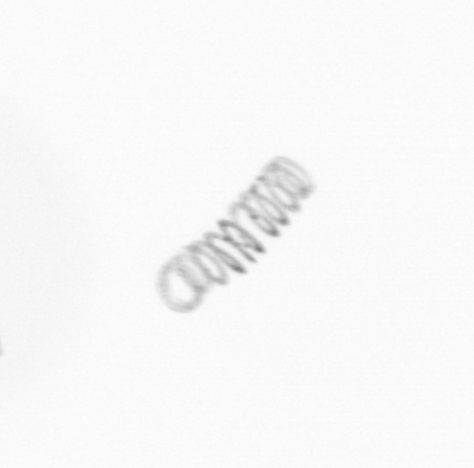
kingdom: Chromista
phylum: Ochrophyta
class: Bacillariophyceae
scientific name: Bacillariophyceae
